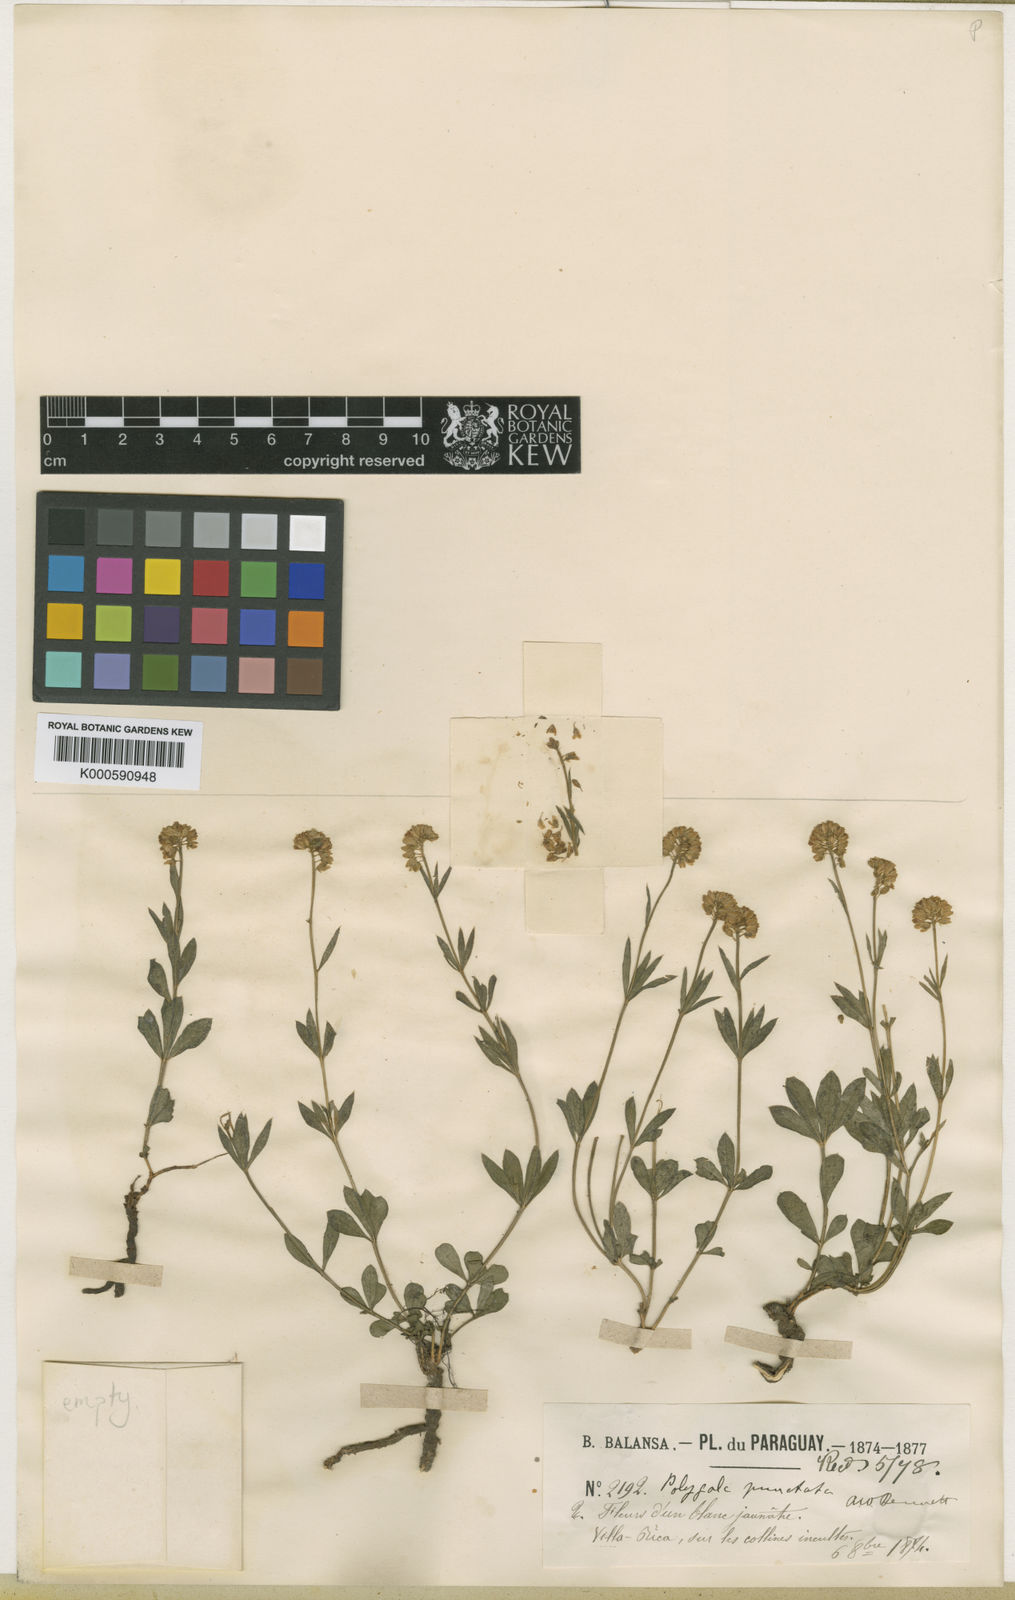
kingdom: Plantae
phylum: Tracheophyta
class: Magnoliopsida
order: Fabales
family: Polygalaceae
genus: Polygala
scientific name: Polygala punctata
